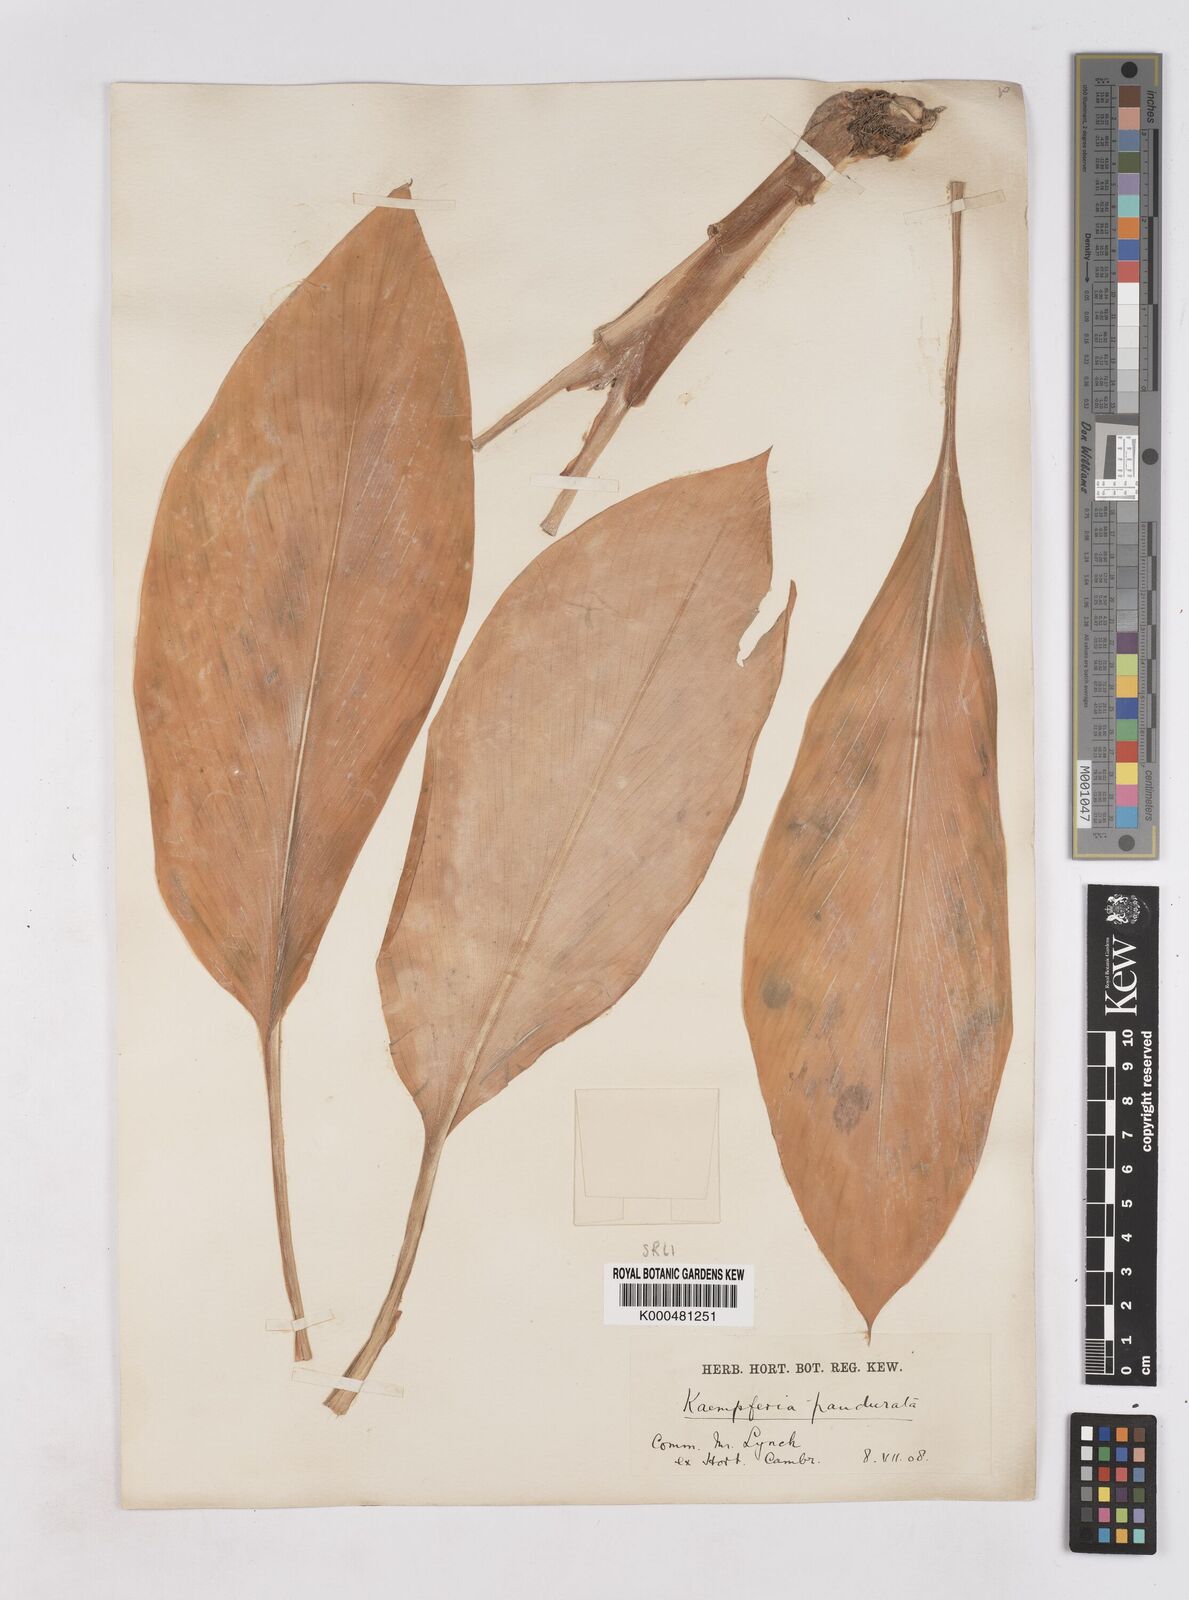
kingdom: Plantae
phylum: Tracheophyta
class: Liliopsida
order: Zingiberales
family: Zingiberaceae
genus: Boesenbergia
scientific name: Boesenbergia rotunda
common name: Chinese ginger
